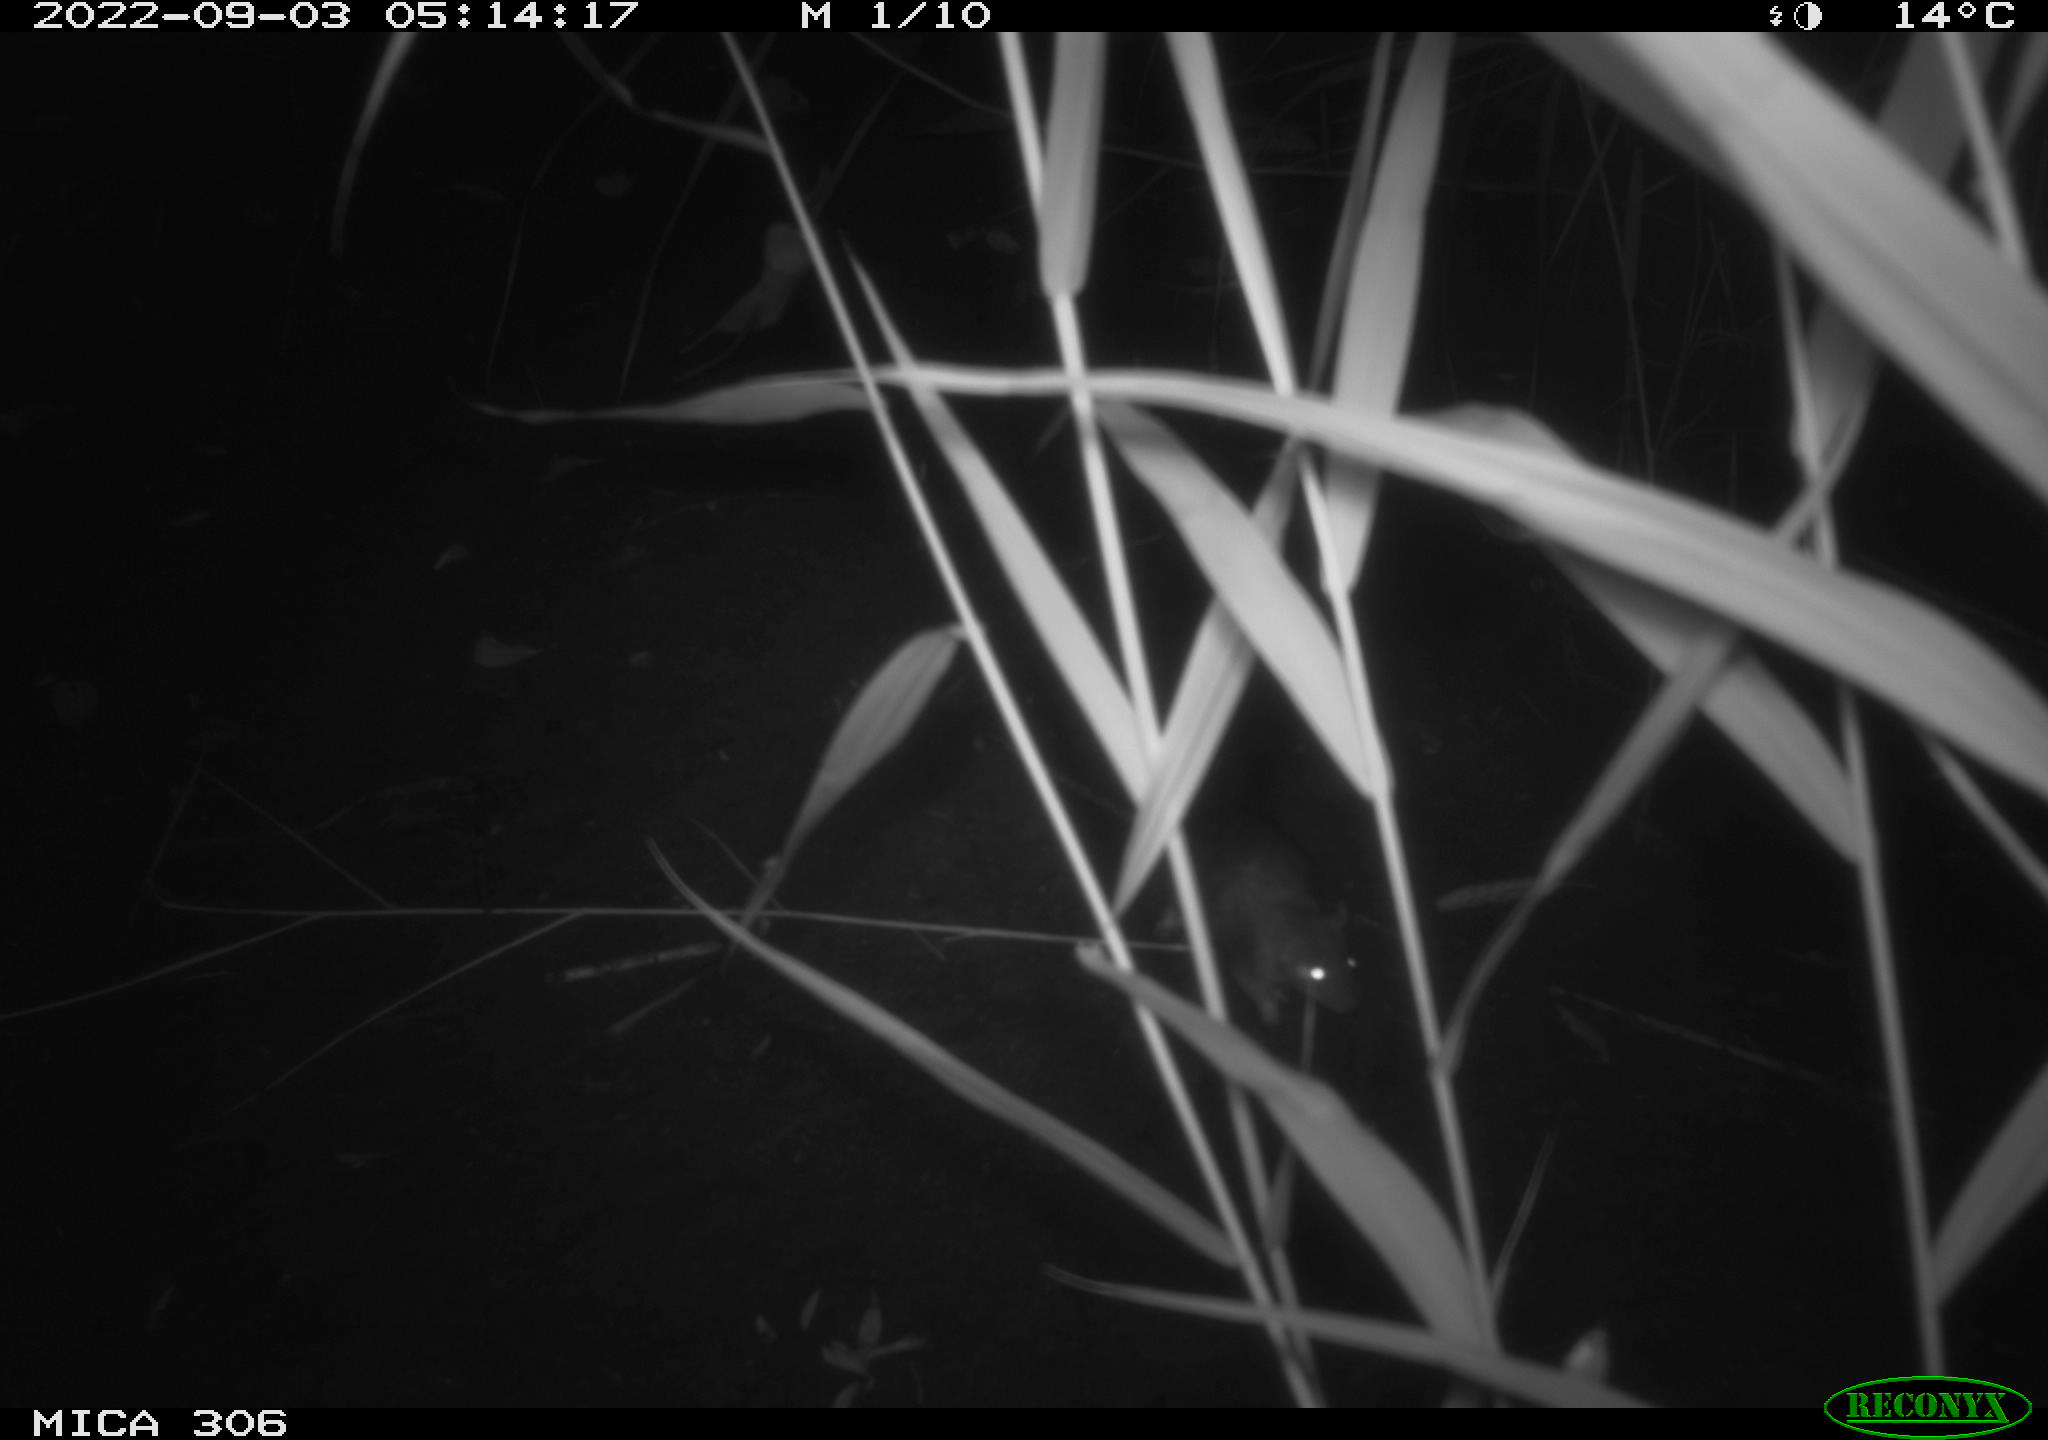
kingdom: Animalia
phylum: Chordata
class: Mammalia
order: Rodentia
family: Muridae
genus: Rattus
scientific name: Rattus norvegicus
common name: Brown rat
